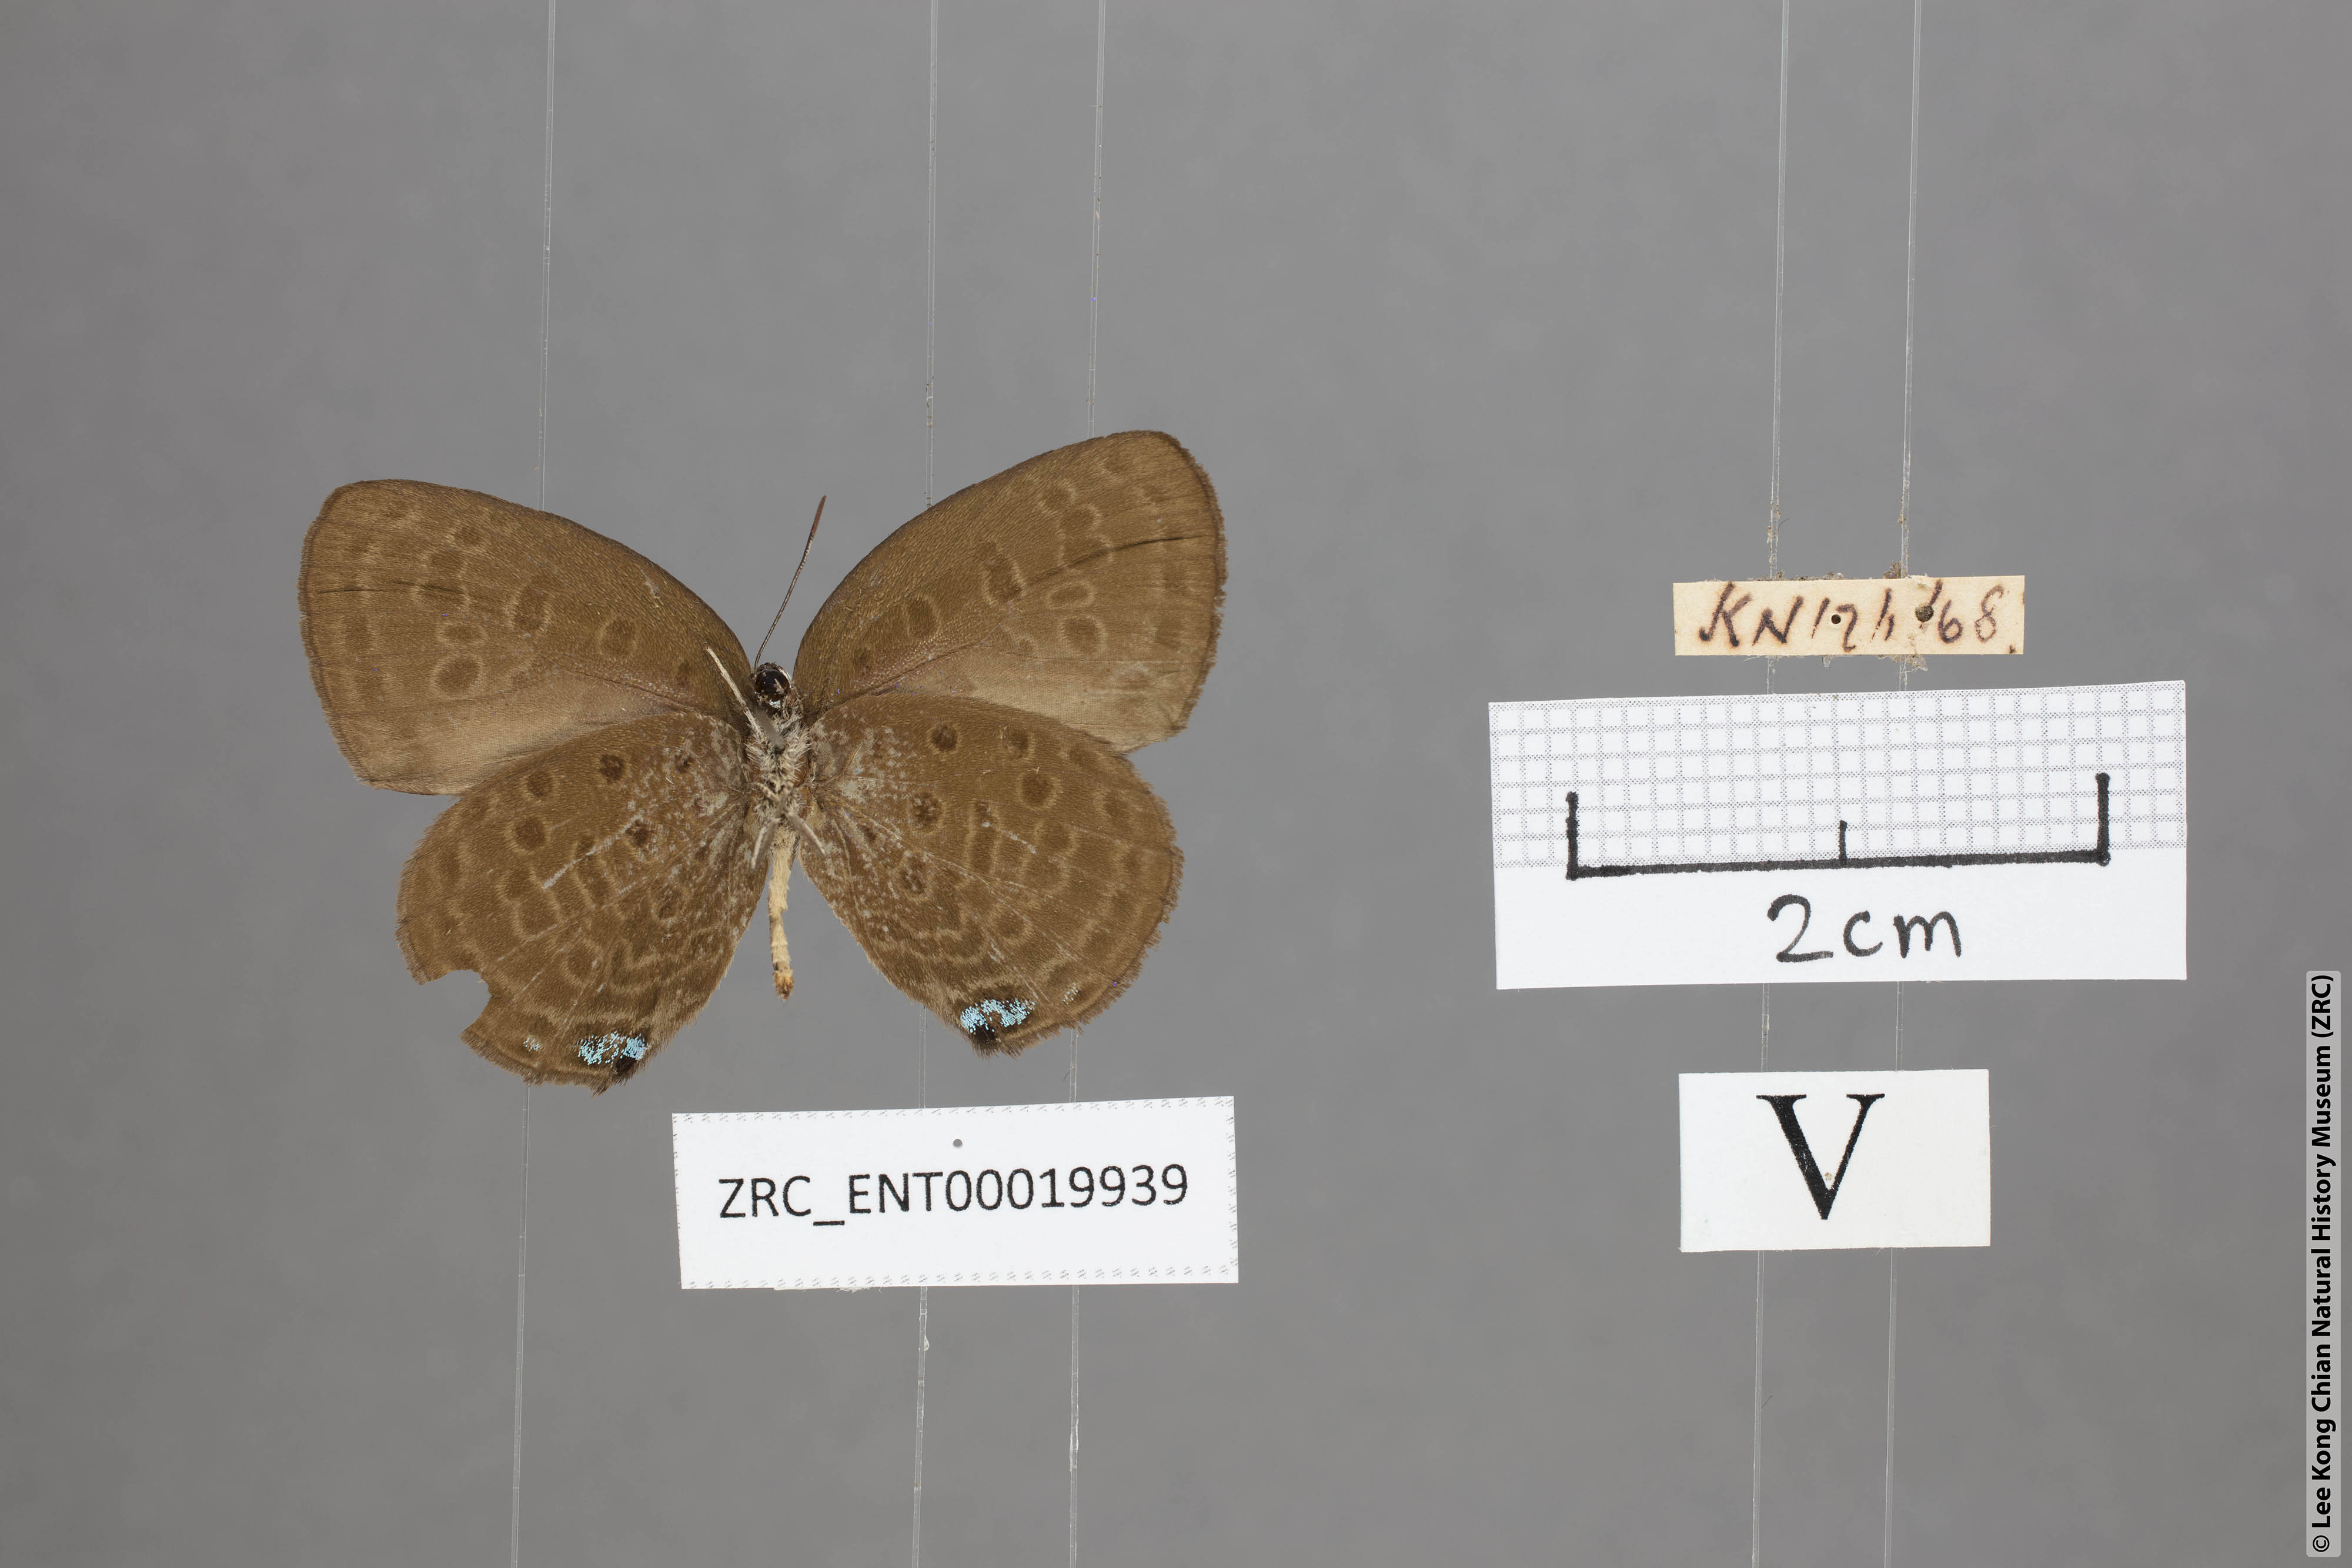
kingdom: Animalia
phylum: Arthropoda
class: Insecta
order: Lepidoptera
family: Lycaenidae
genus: Arhopala
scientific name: Arhopala zylda
